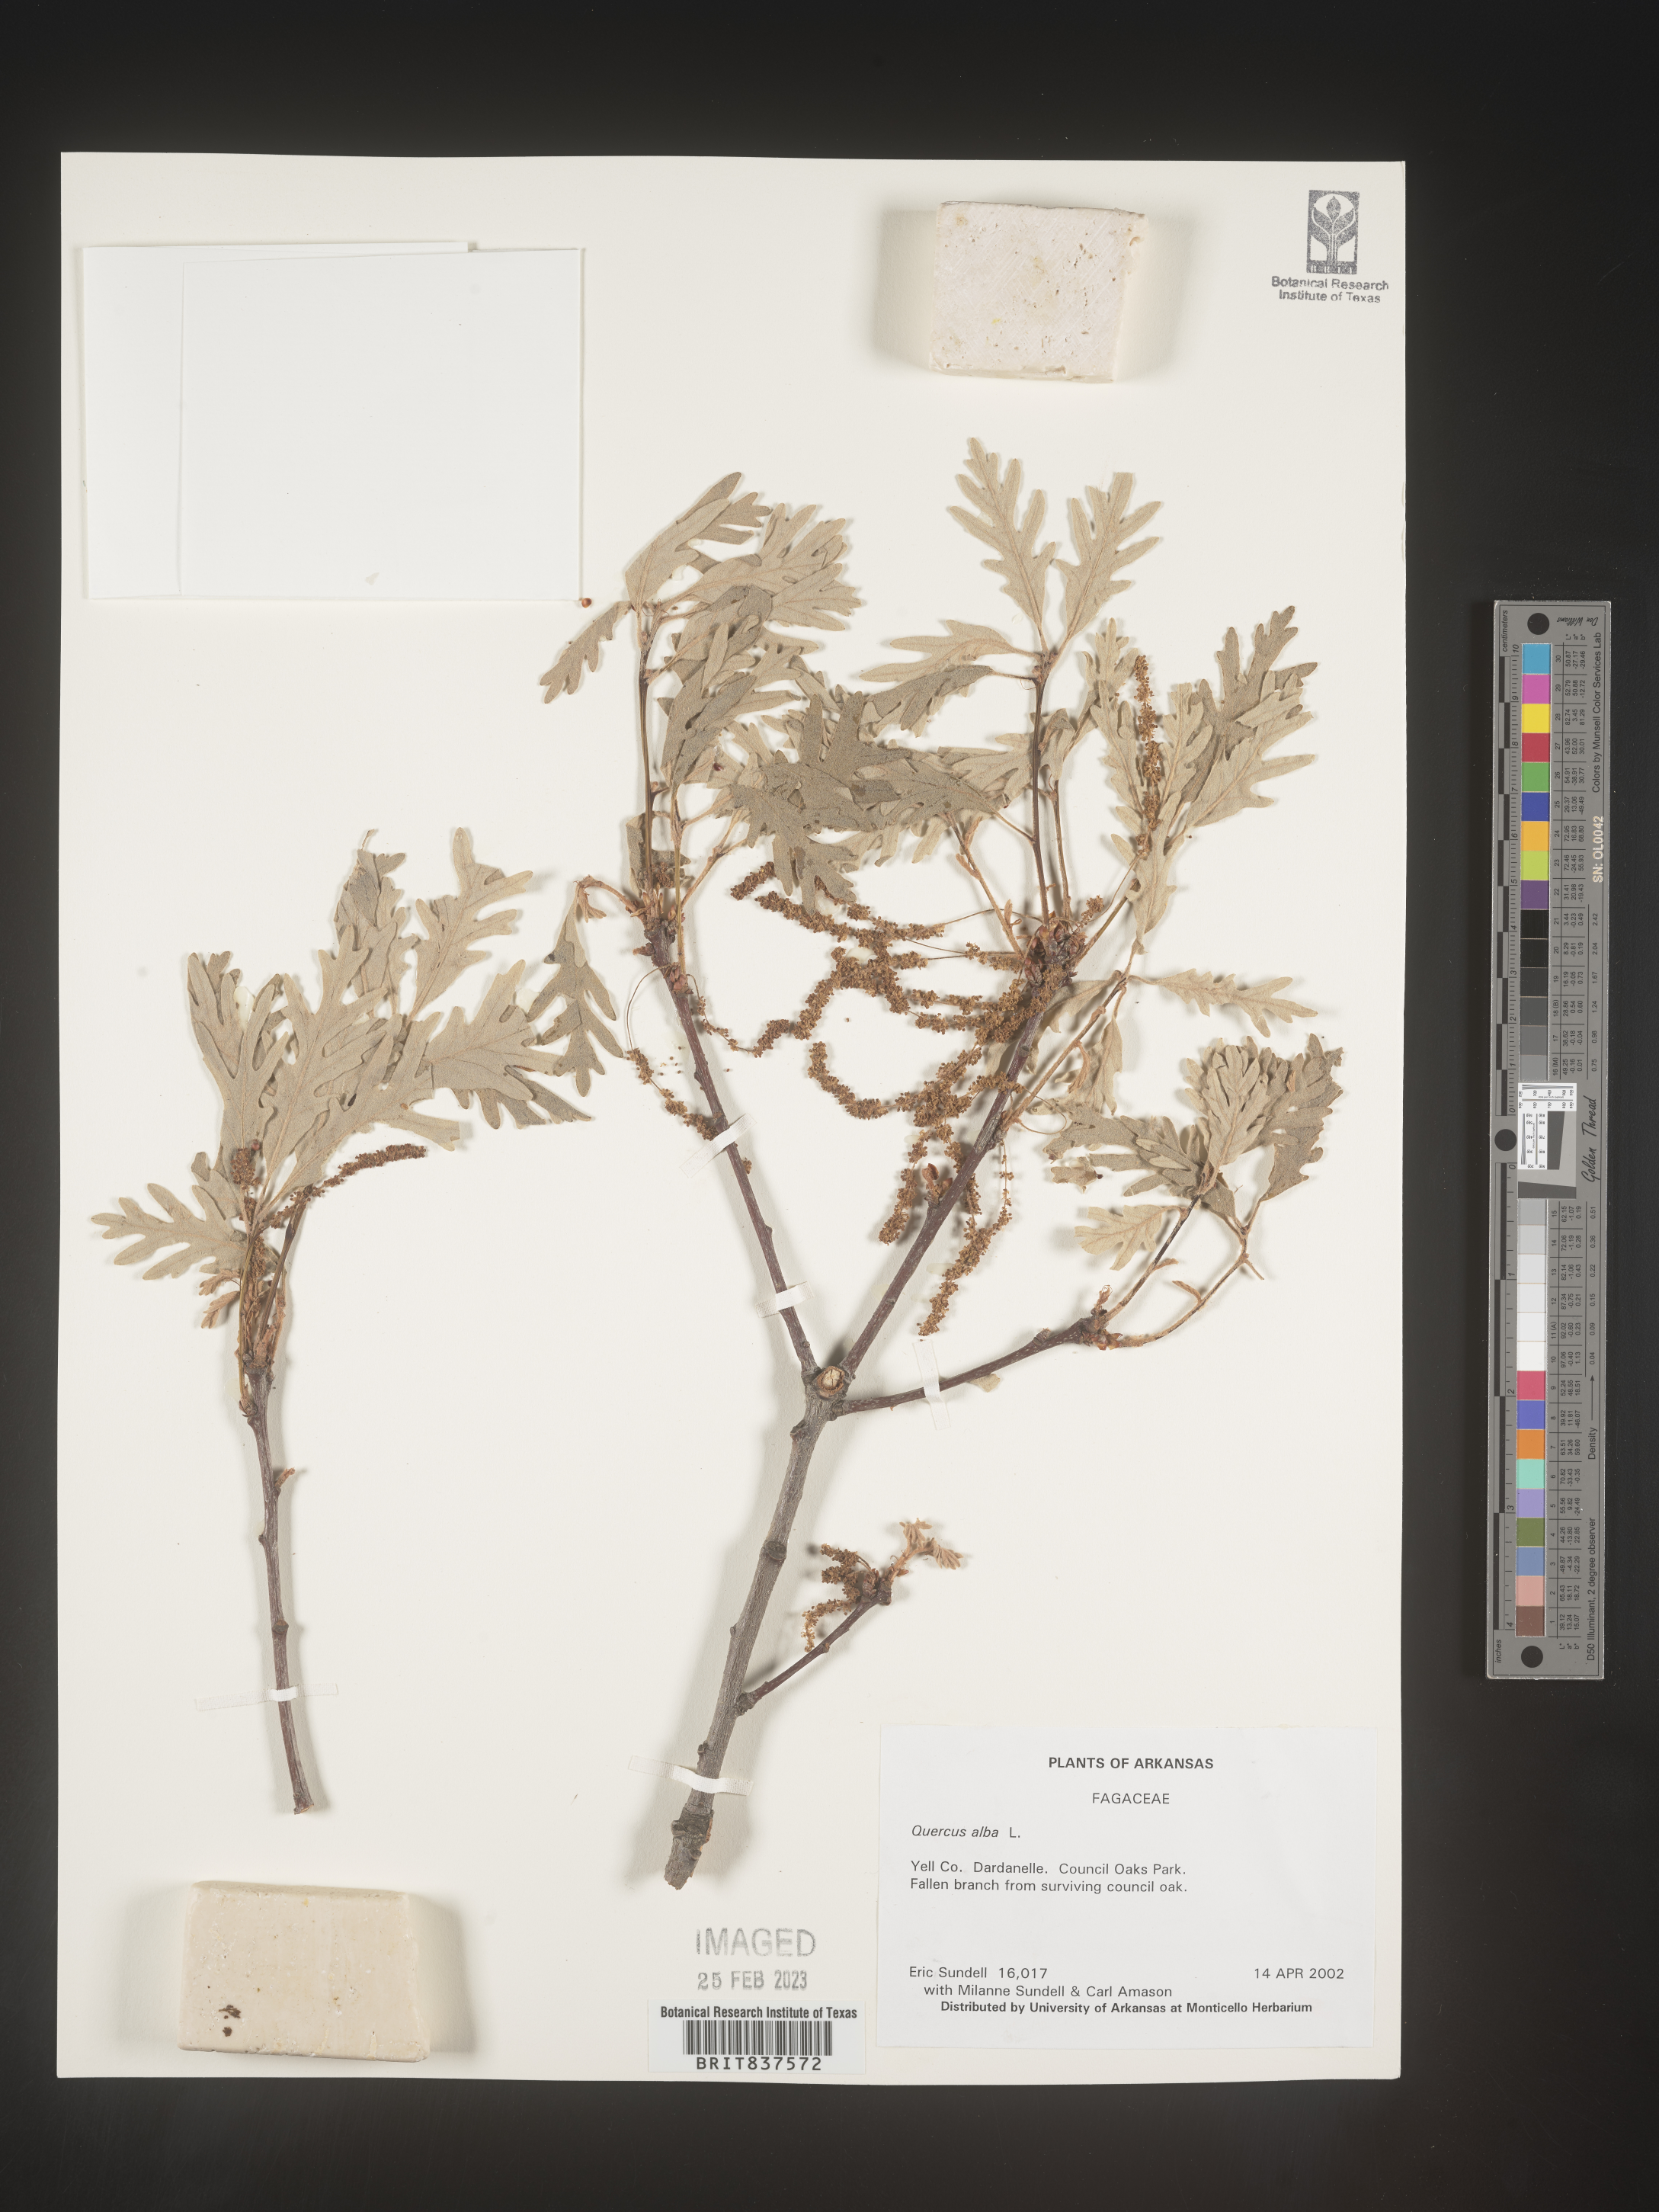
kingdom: Plantae
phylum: Tracheophyta
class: Magnoliopsida
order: Fagales
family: Fagaceae
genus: Quercus
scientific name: Quercus alba
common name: White oak
